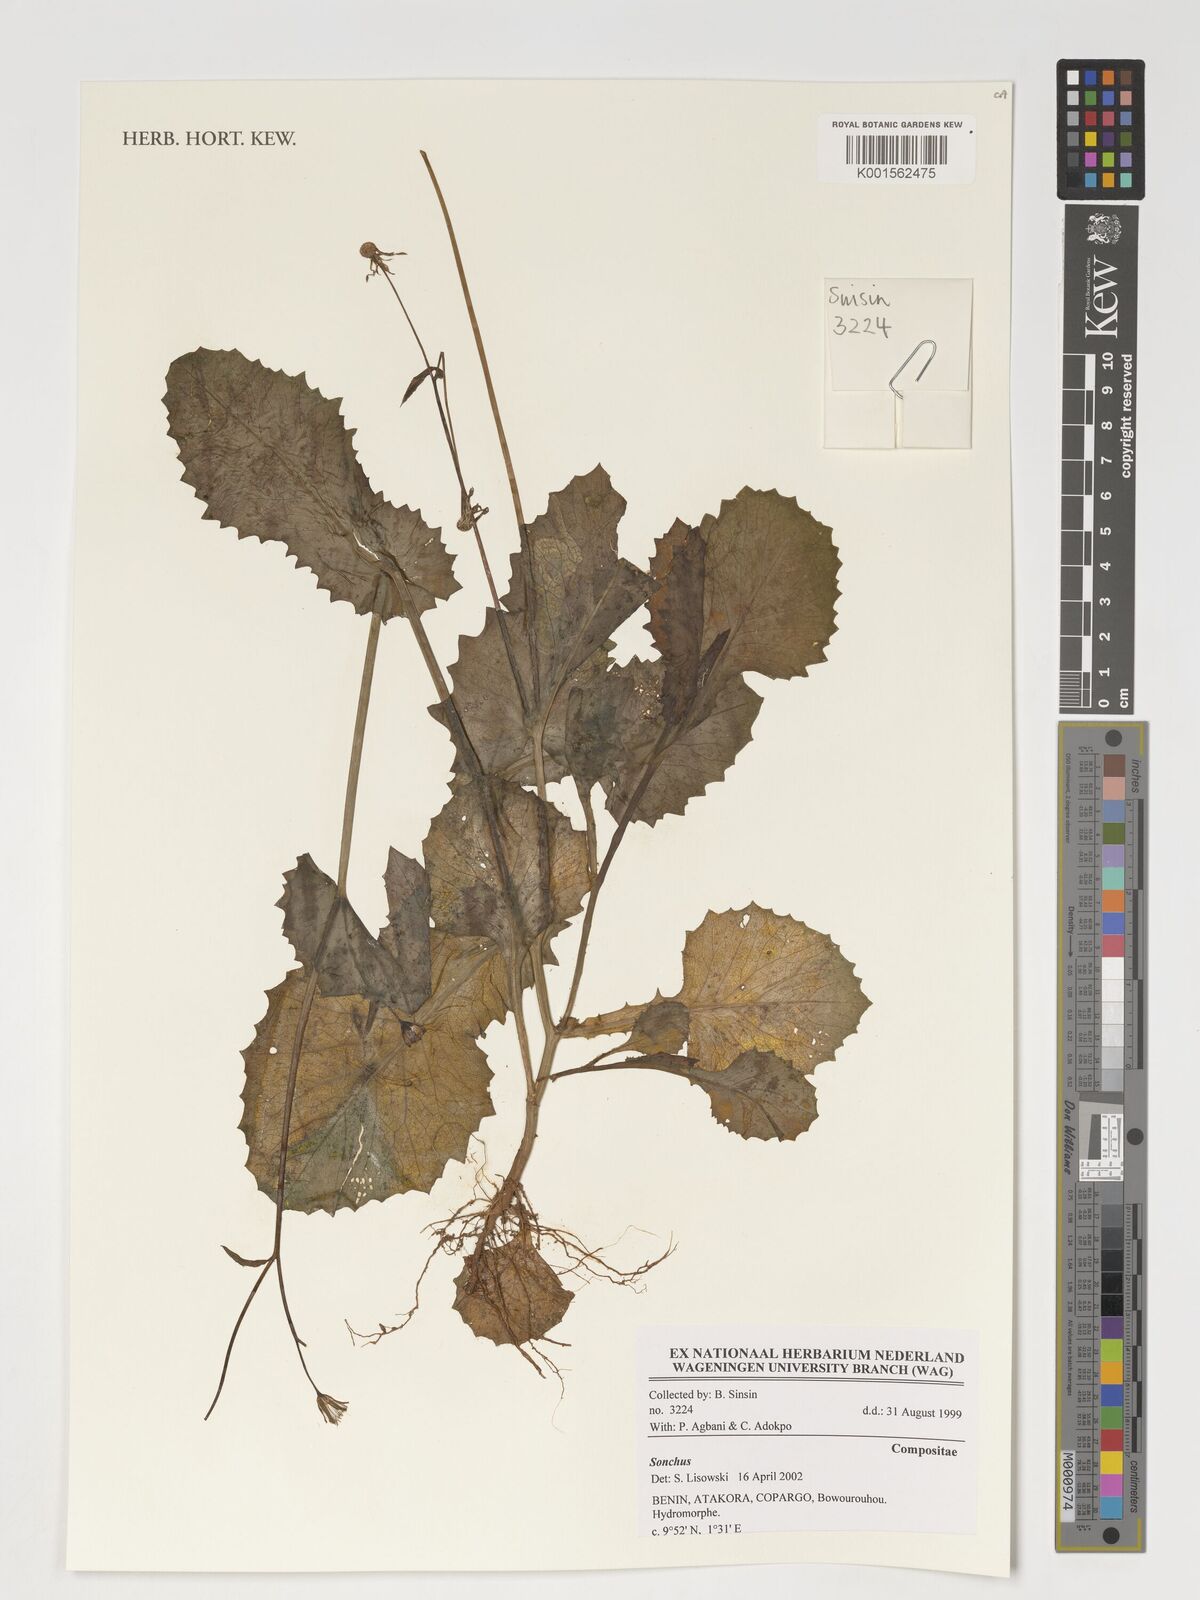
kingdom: Plantae
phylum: Tracheophyta
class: Magnoliopsida
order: Asterales
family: Asteraceae
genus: Sonchus
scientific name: Sonchus
